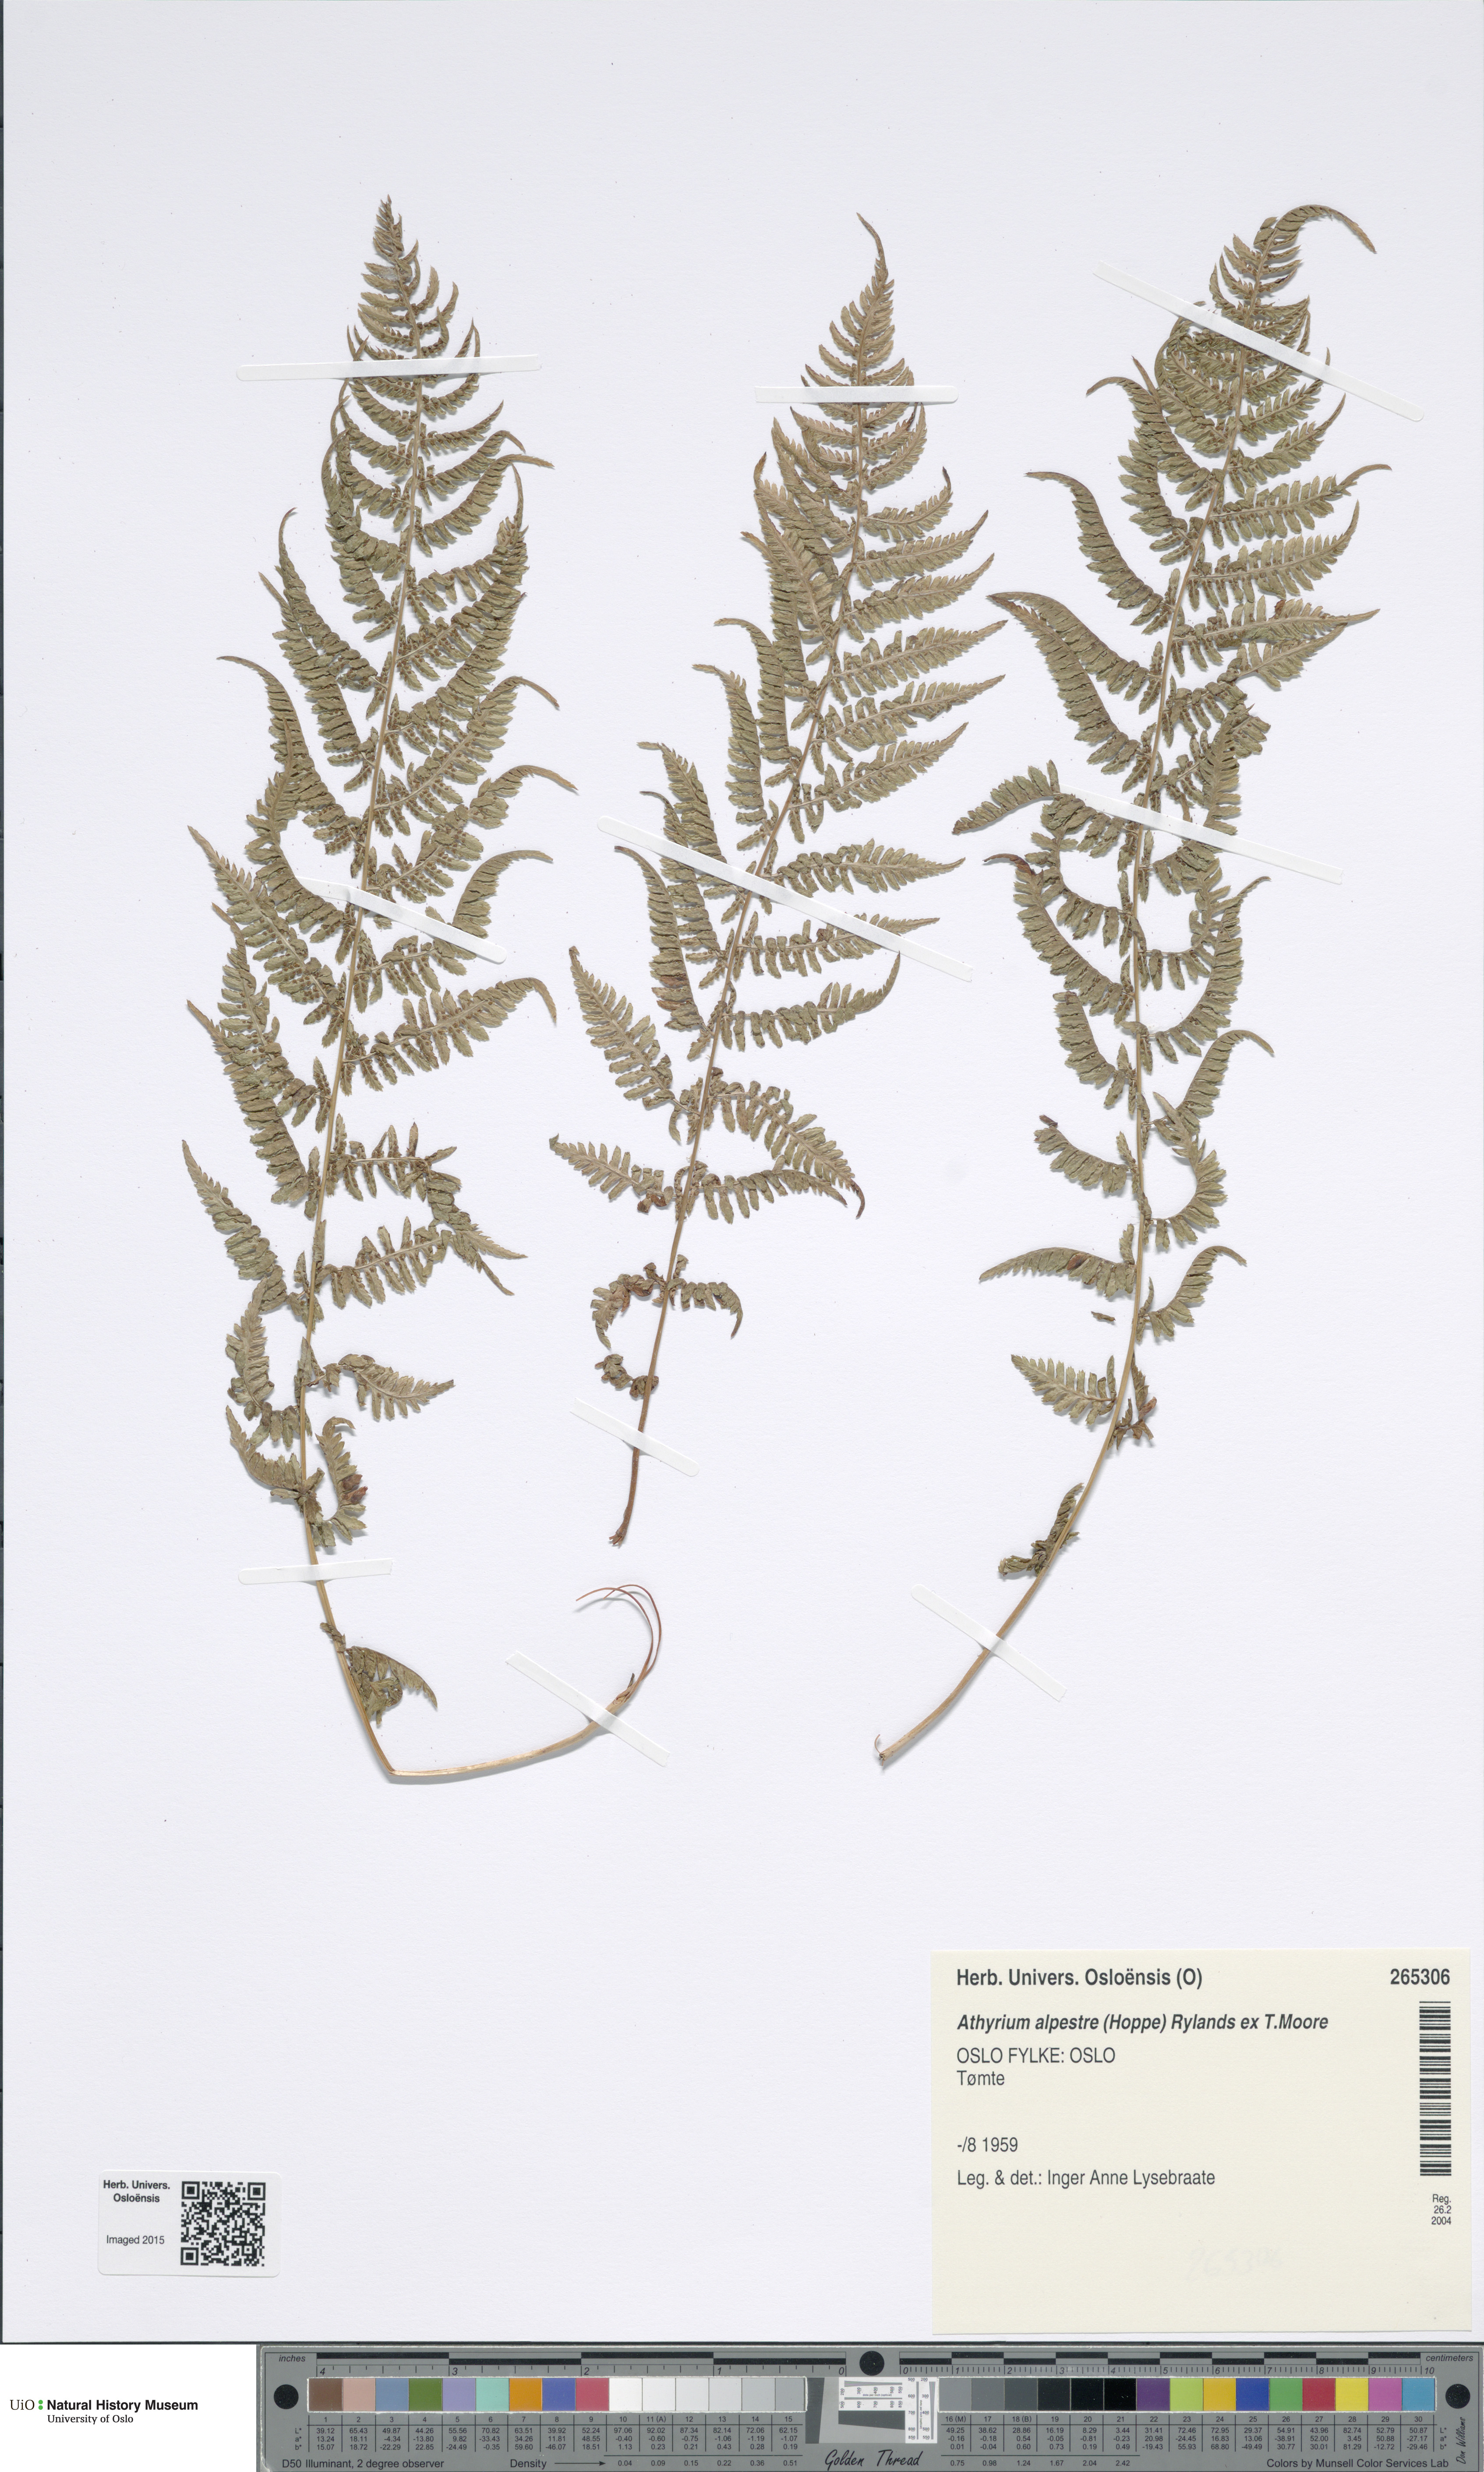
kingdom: Plantae
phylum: Tracheophyta
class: Polypodiopsida
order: Polypodiales
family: Athyriaceae
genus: Pseudathyrium
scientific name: Pseudathyrium alpestre
